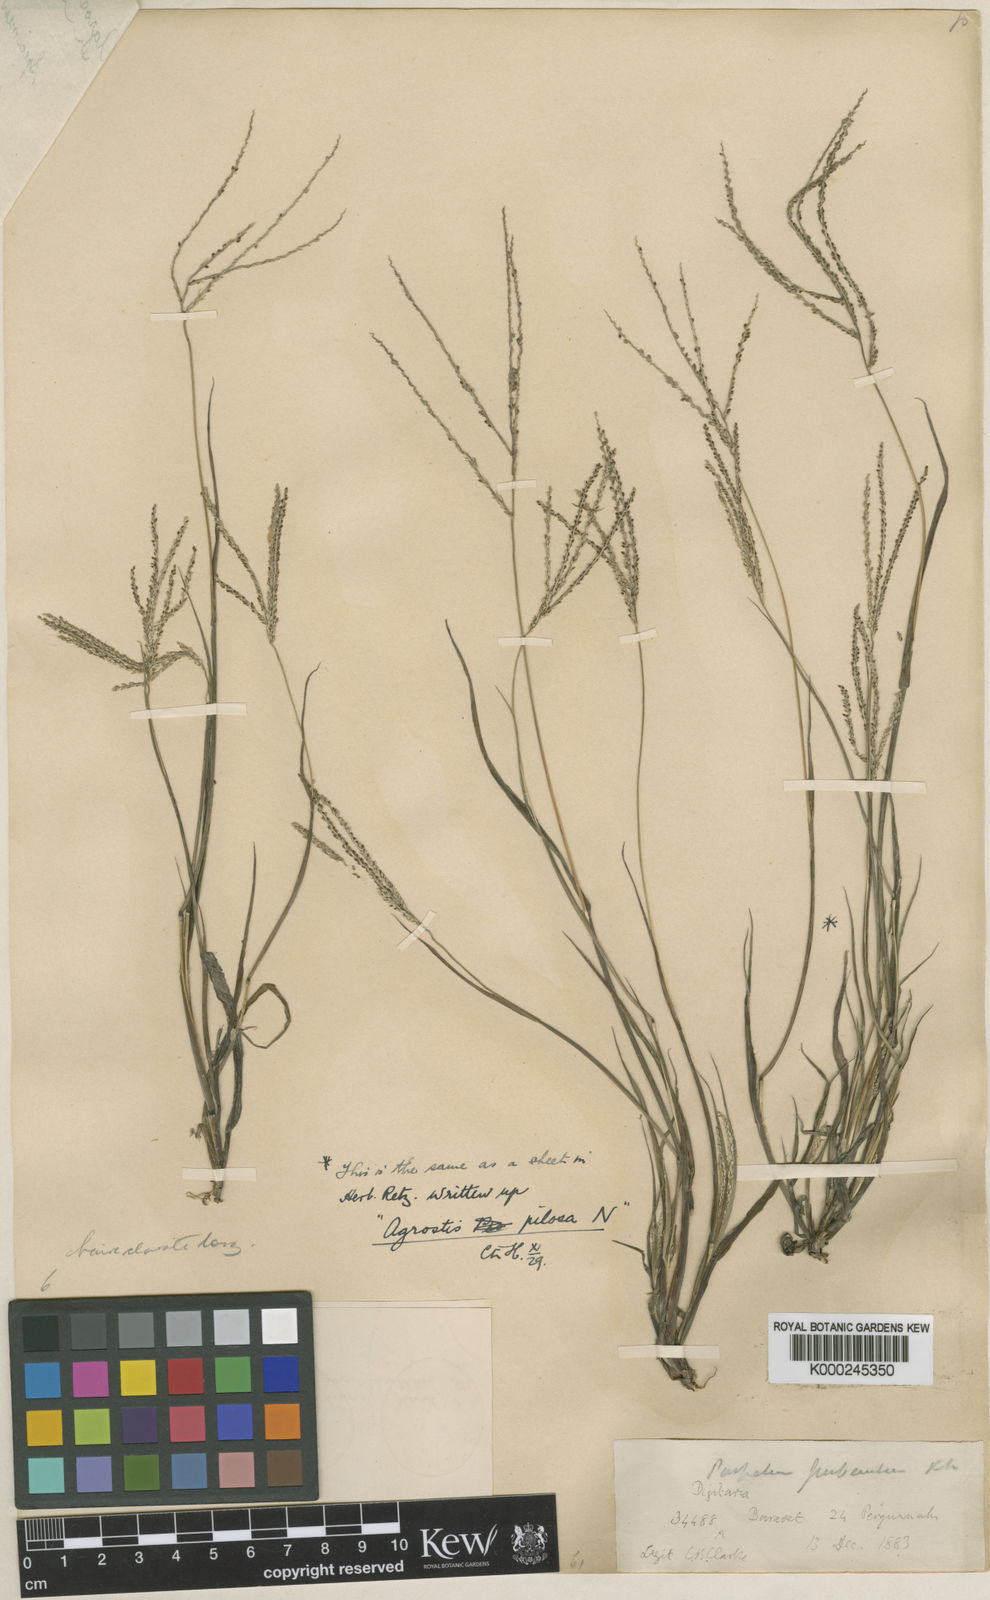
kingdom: Plantae
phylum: Tracheophyta
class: Liliopsida
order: Poales
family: Poaceae
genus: Digitaria
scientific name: Digitaria
